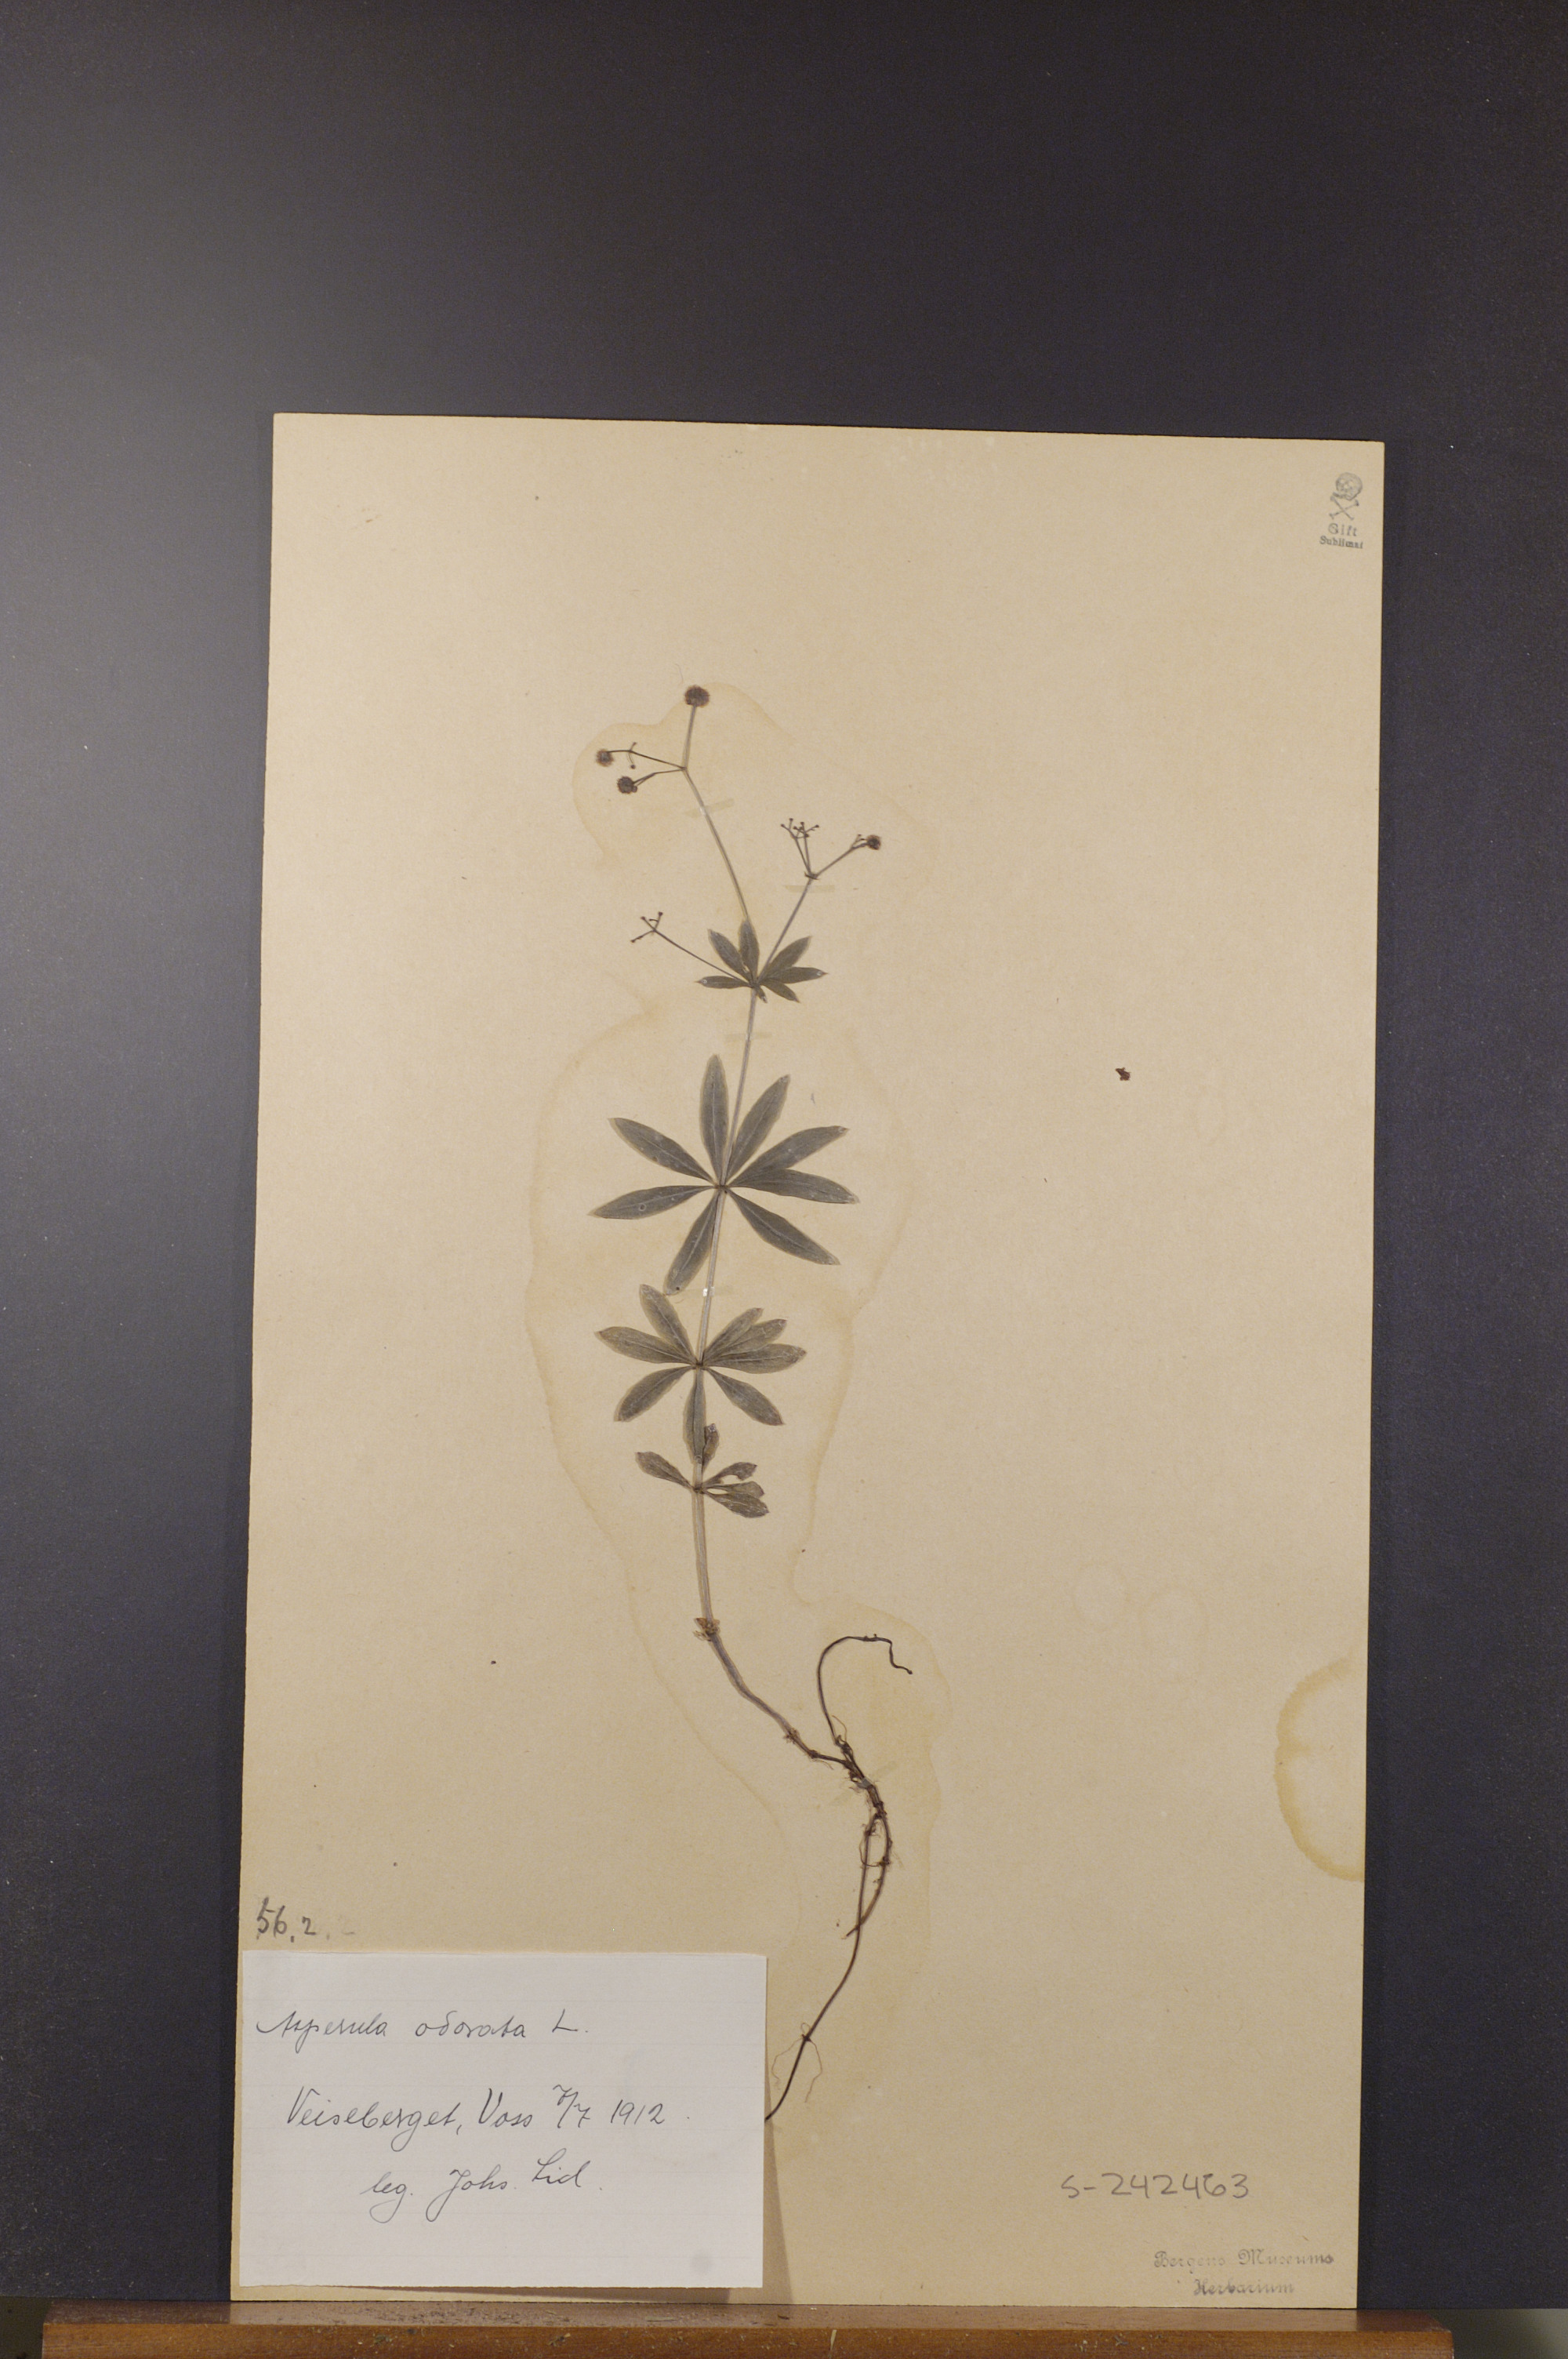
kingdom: Plantae
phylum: Tracheophyta
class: Magnoliopsida
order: Gentianales
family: Rubiaceae
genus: Galium
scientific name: Galium odoratum
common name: Sweet woodruff
